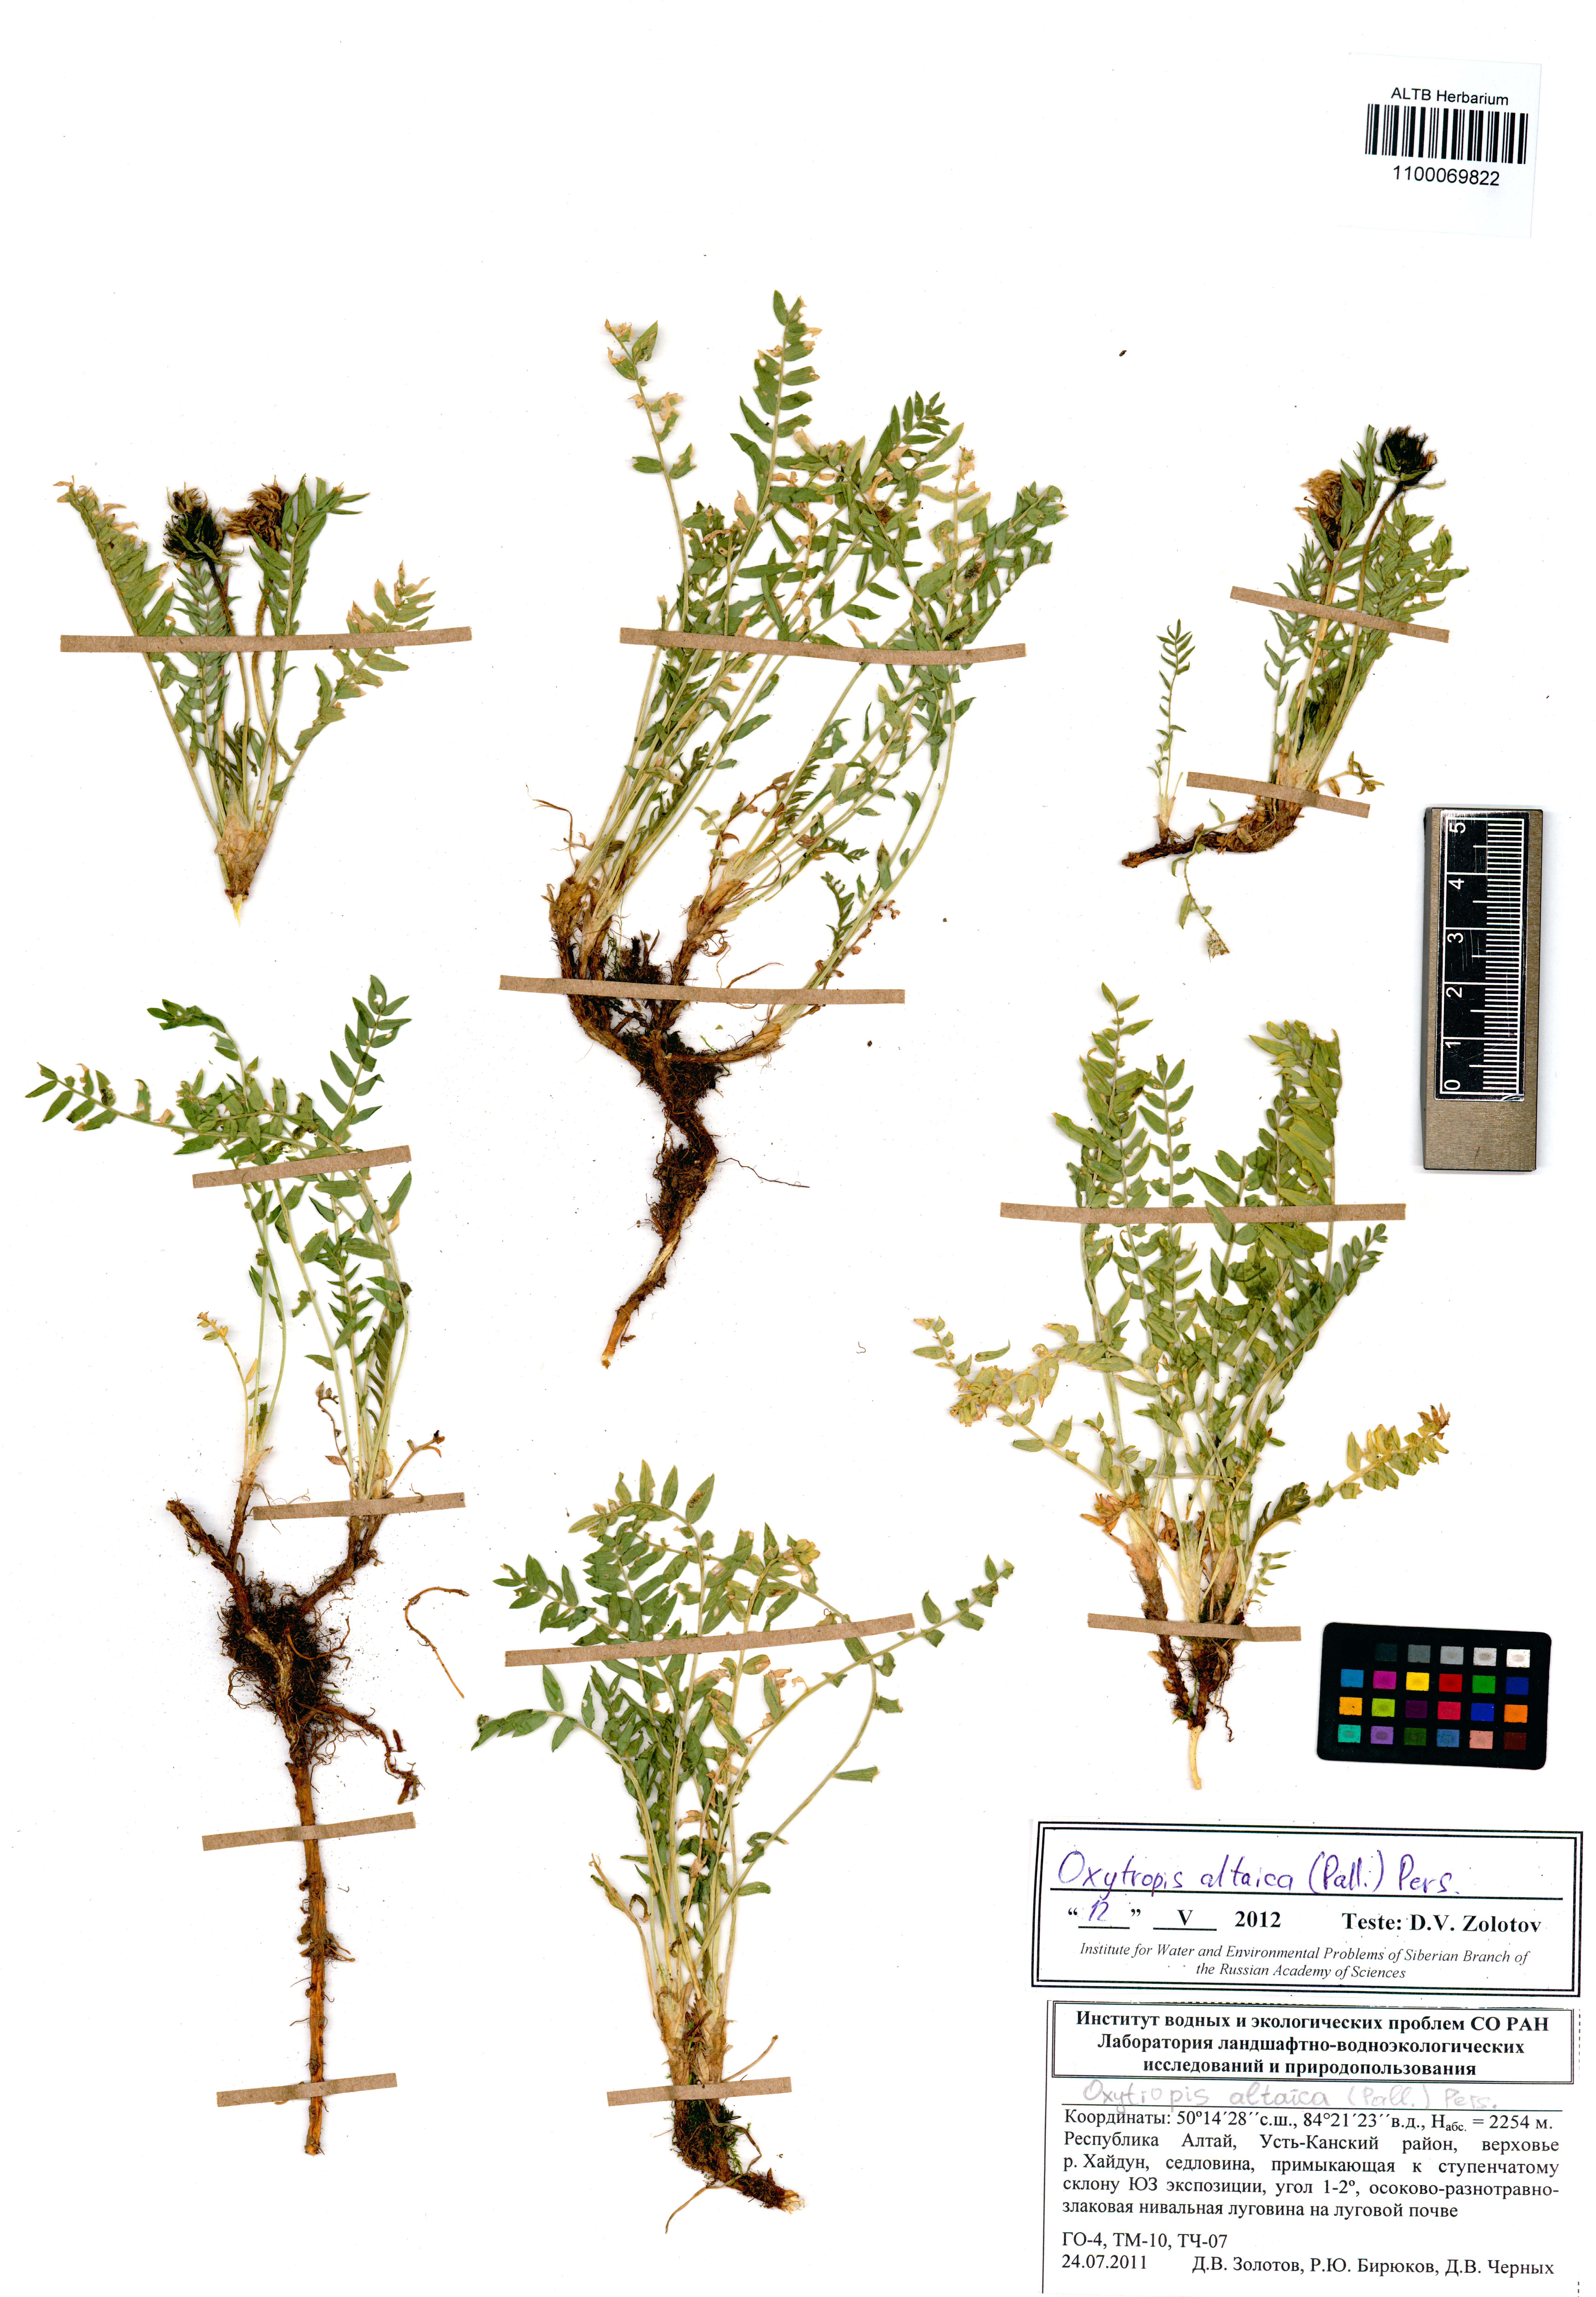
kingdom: Plantae
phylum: Tracheophyta
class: Magnoliopsida
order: Fabales
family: Fabaceae
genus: Oxytropis
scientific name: Oxytropis altaica
